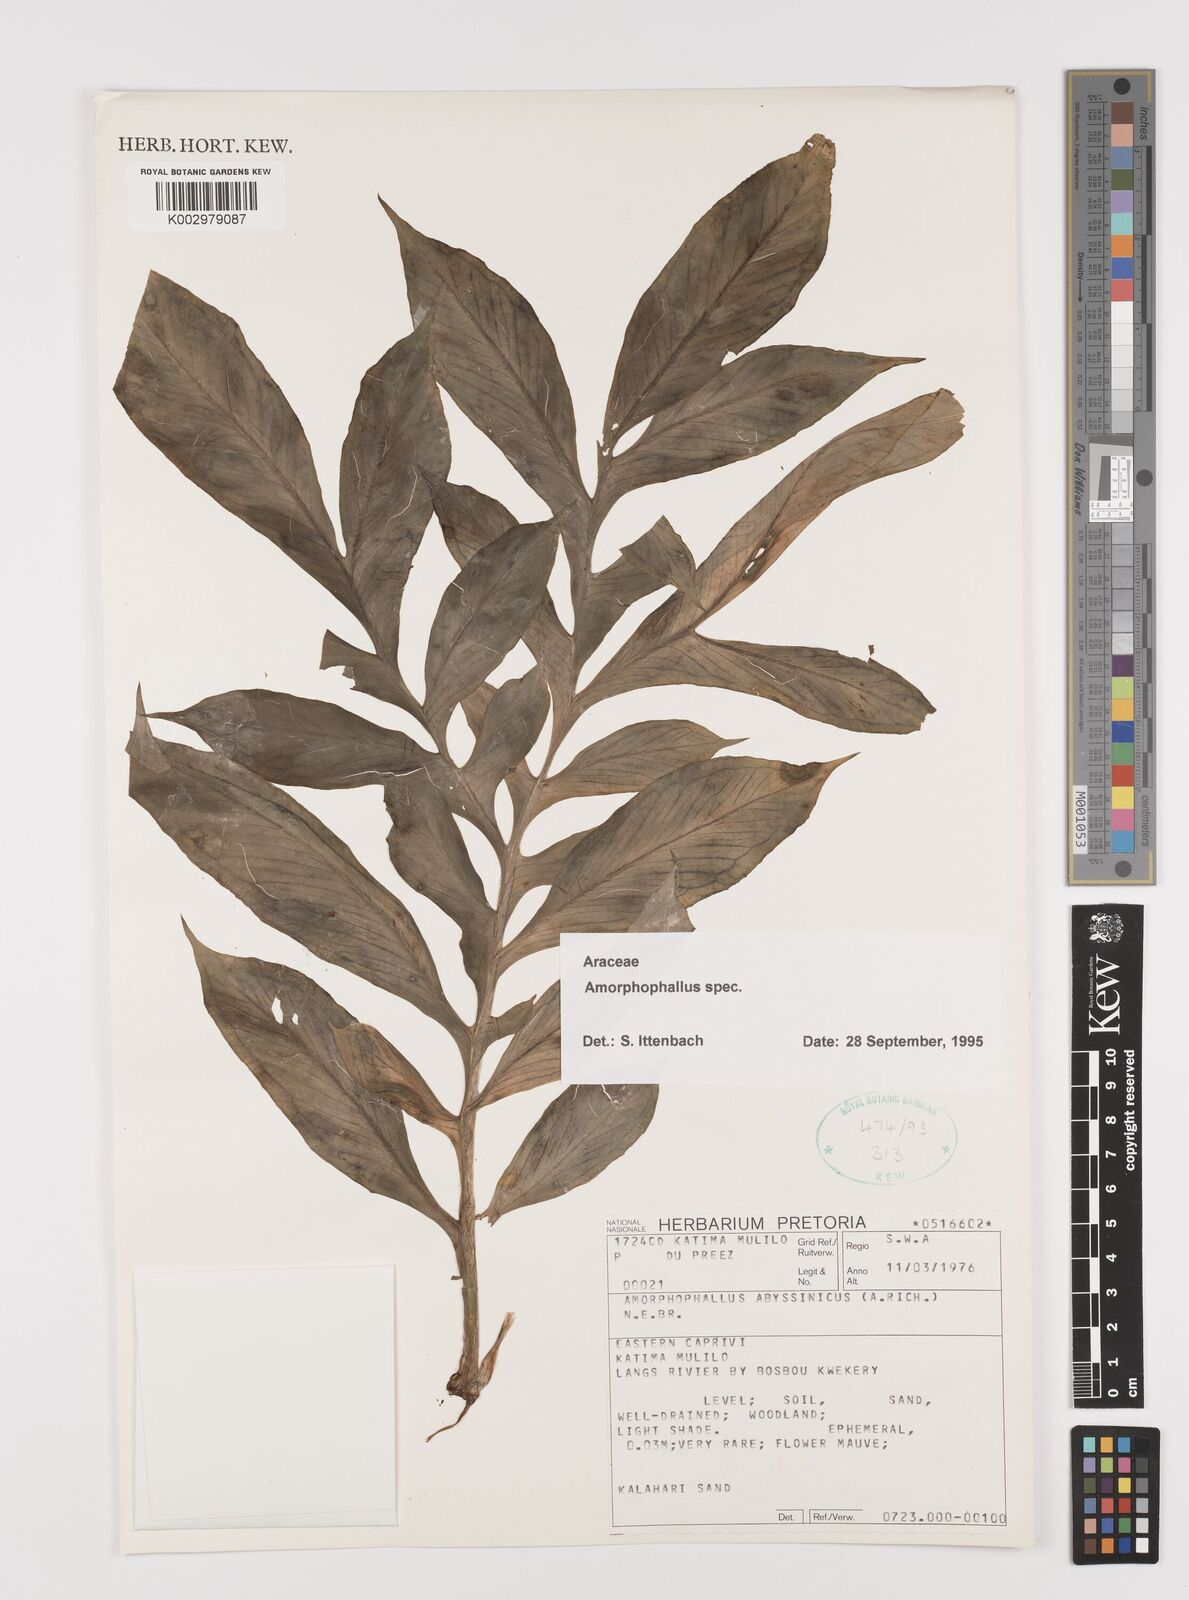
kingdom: Plantae
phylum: Tracheophyta
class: Liliopsida
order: Alismatales
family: Araceae
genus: Amorphophallus
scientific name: Amorphophallus
